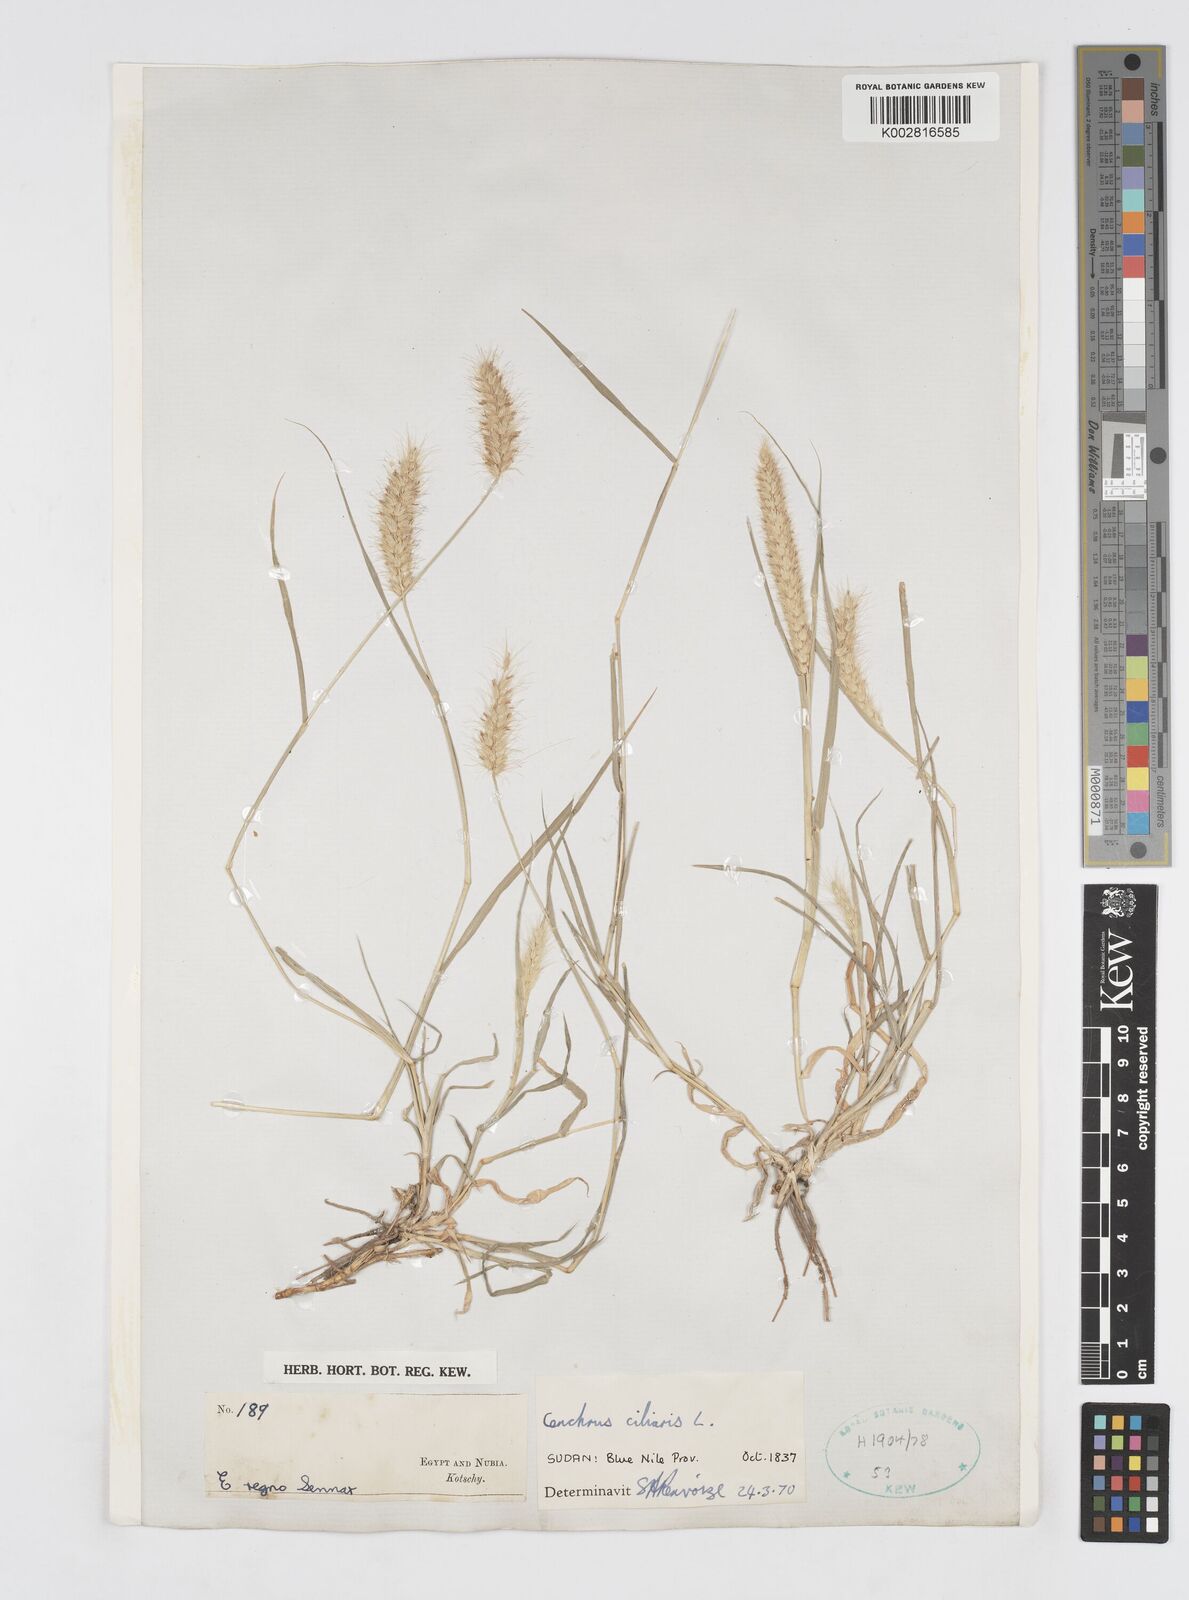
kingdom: Plantae
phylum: Tracheophyta
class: Liliopsida
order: Poales
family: Poaceae
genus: Cenchrus
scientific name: Cenchrus ciliaris
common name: Buffelgrass
